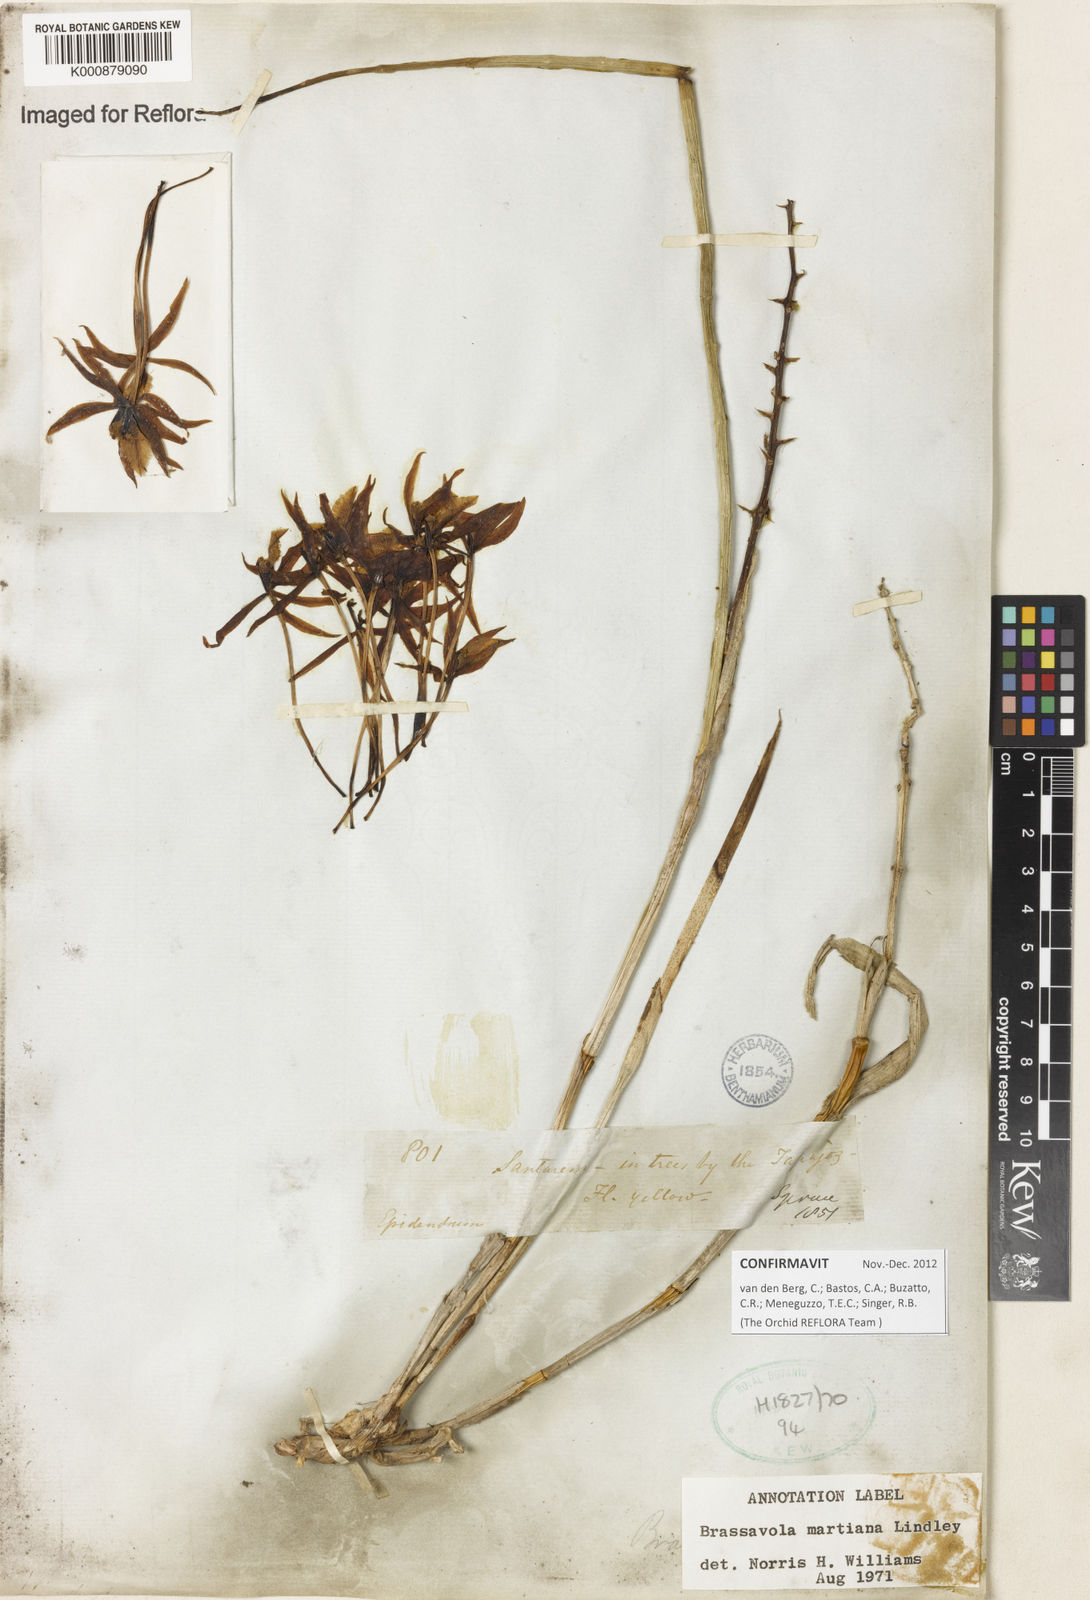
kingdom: Plantae
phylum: Tracheophyta
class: Liliopsida
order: Asparagales
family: Orchidaceae
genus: Brassavola
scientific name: Brassavola martiana
